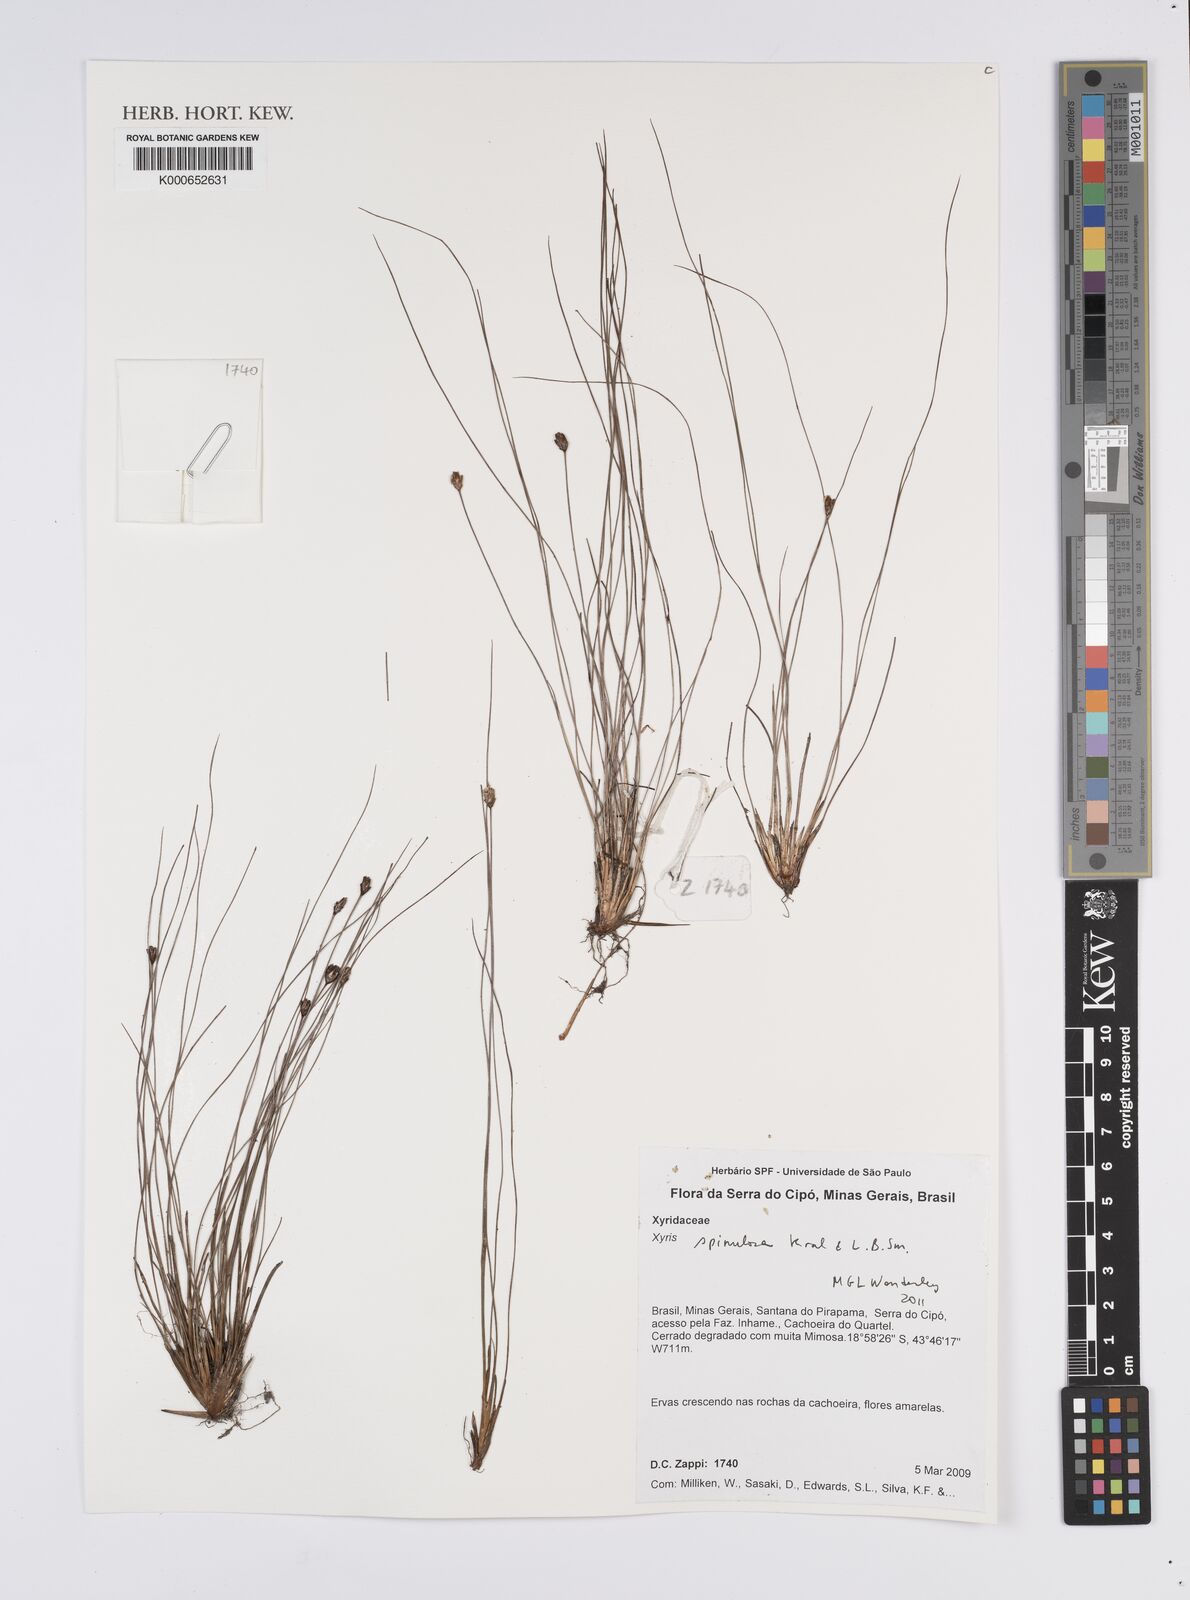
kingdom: Plantae
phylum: Tracheophyta
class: Liliopsida
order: Poales
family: Xyridaceae
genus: Xyris
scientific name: Xyris spinulosa
